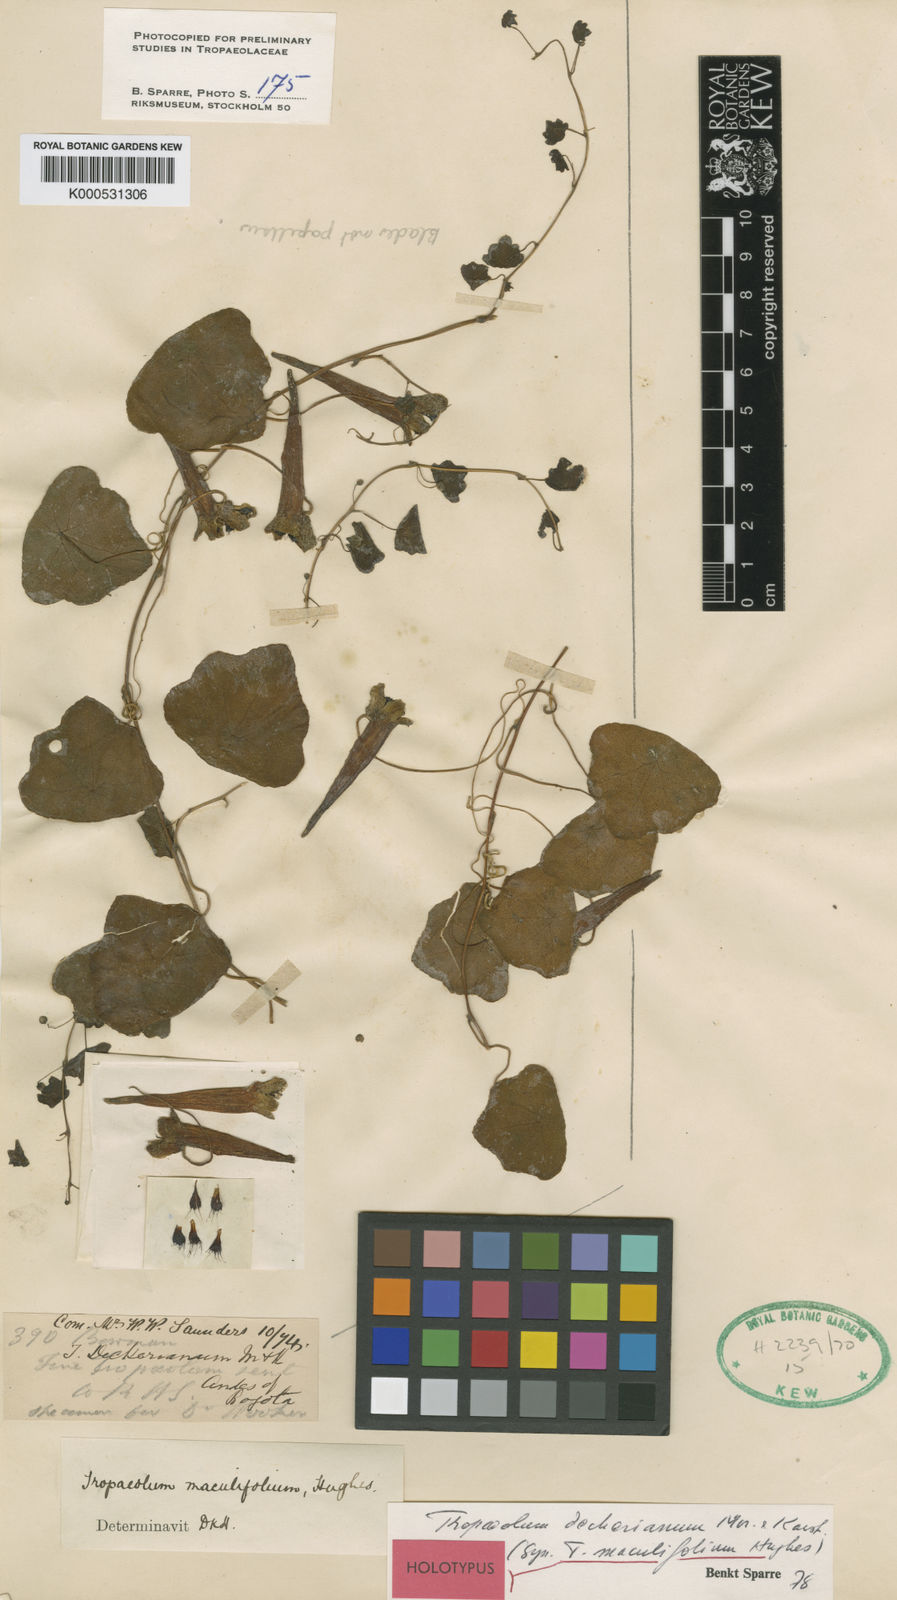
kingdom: Plantae
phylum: Tracheophyta
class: Magnoliopsida
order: Brassicales
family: Tropaeolaceae
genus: Tropaeolum
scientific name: Tropaeolum deckerianum
